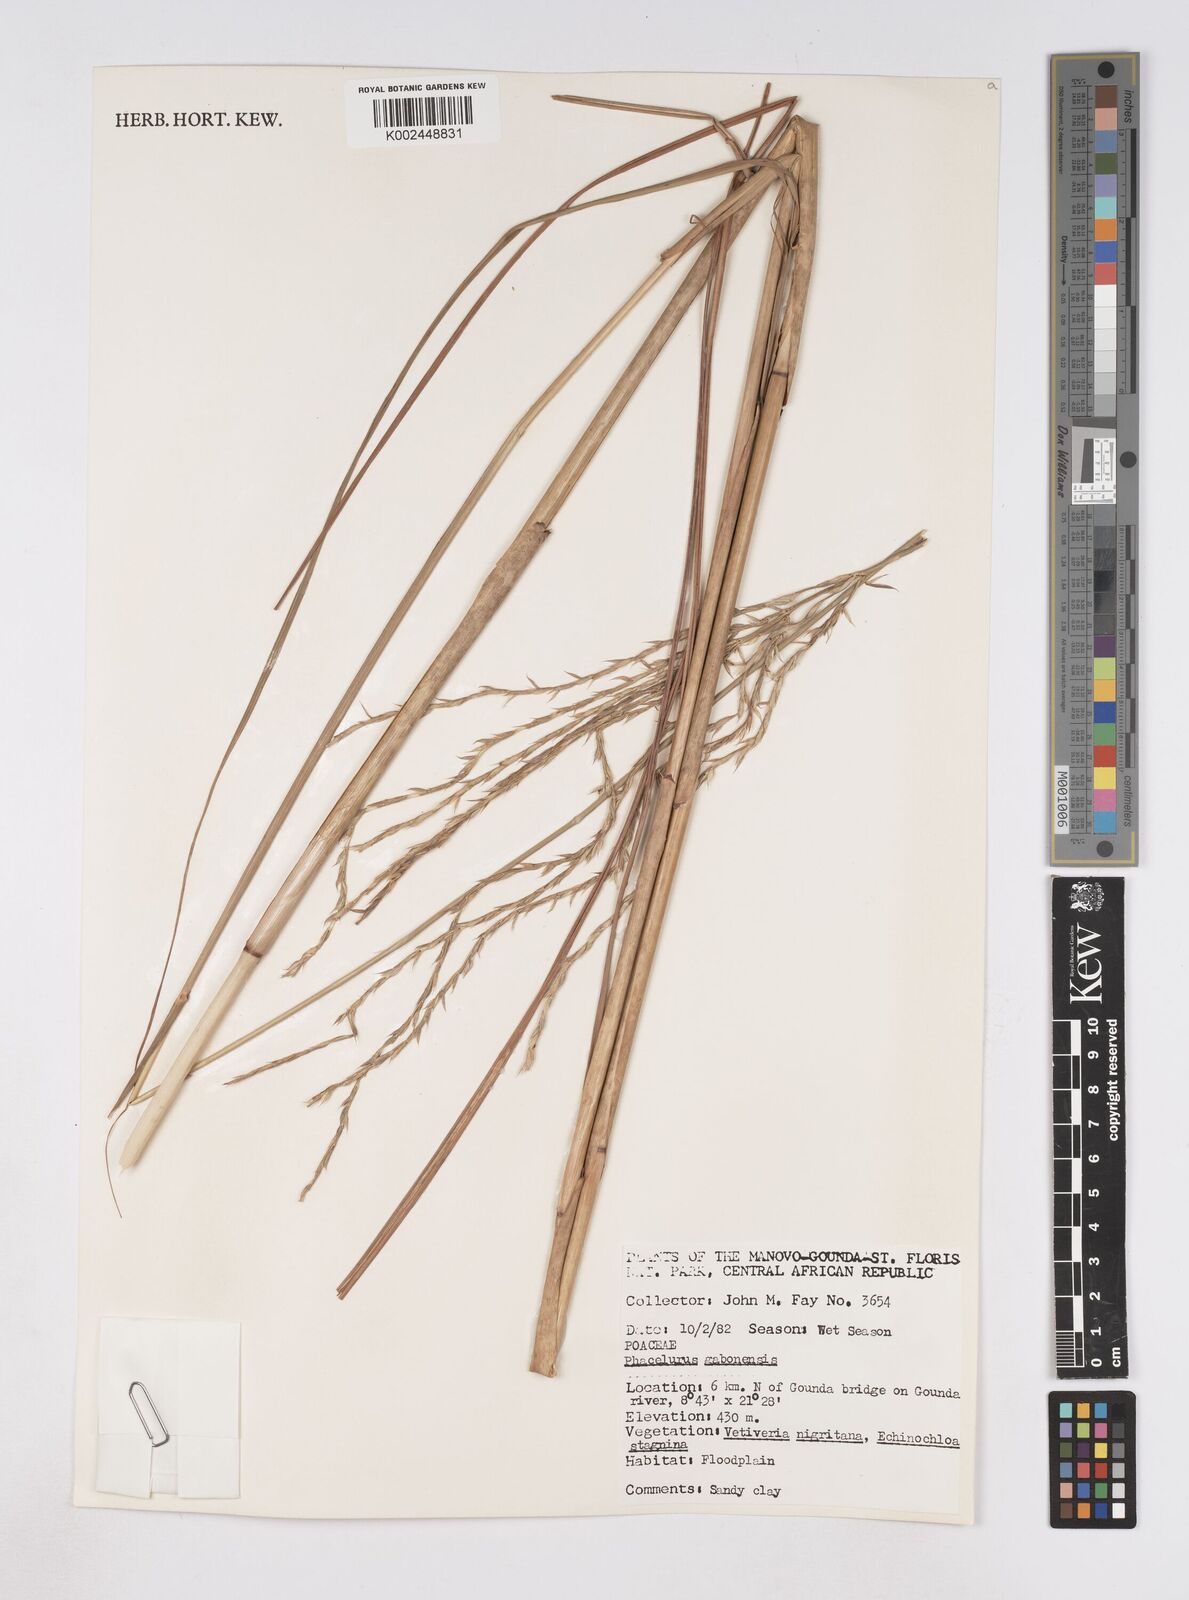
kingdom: Plantae
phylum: Tracheophyta
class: Liliopsida
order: Poales
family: Poaceae
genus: Phacelurus
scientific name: Phacelurus gabonensis
